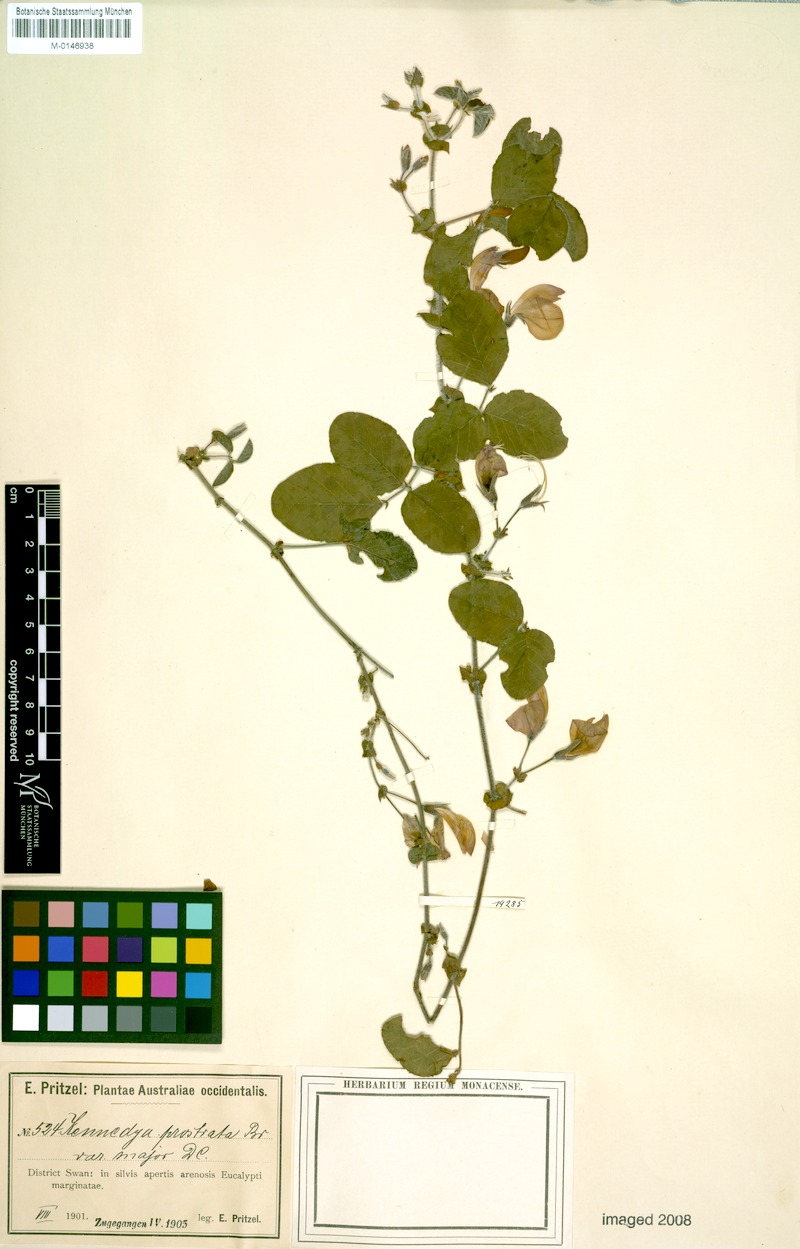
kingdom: Plantae
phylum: Tracheophyta
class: Magnoliopsida
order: Fabales
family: Fabaceae
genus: Kennedia
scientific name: Kennedia prostrata
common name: Running-postman
